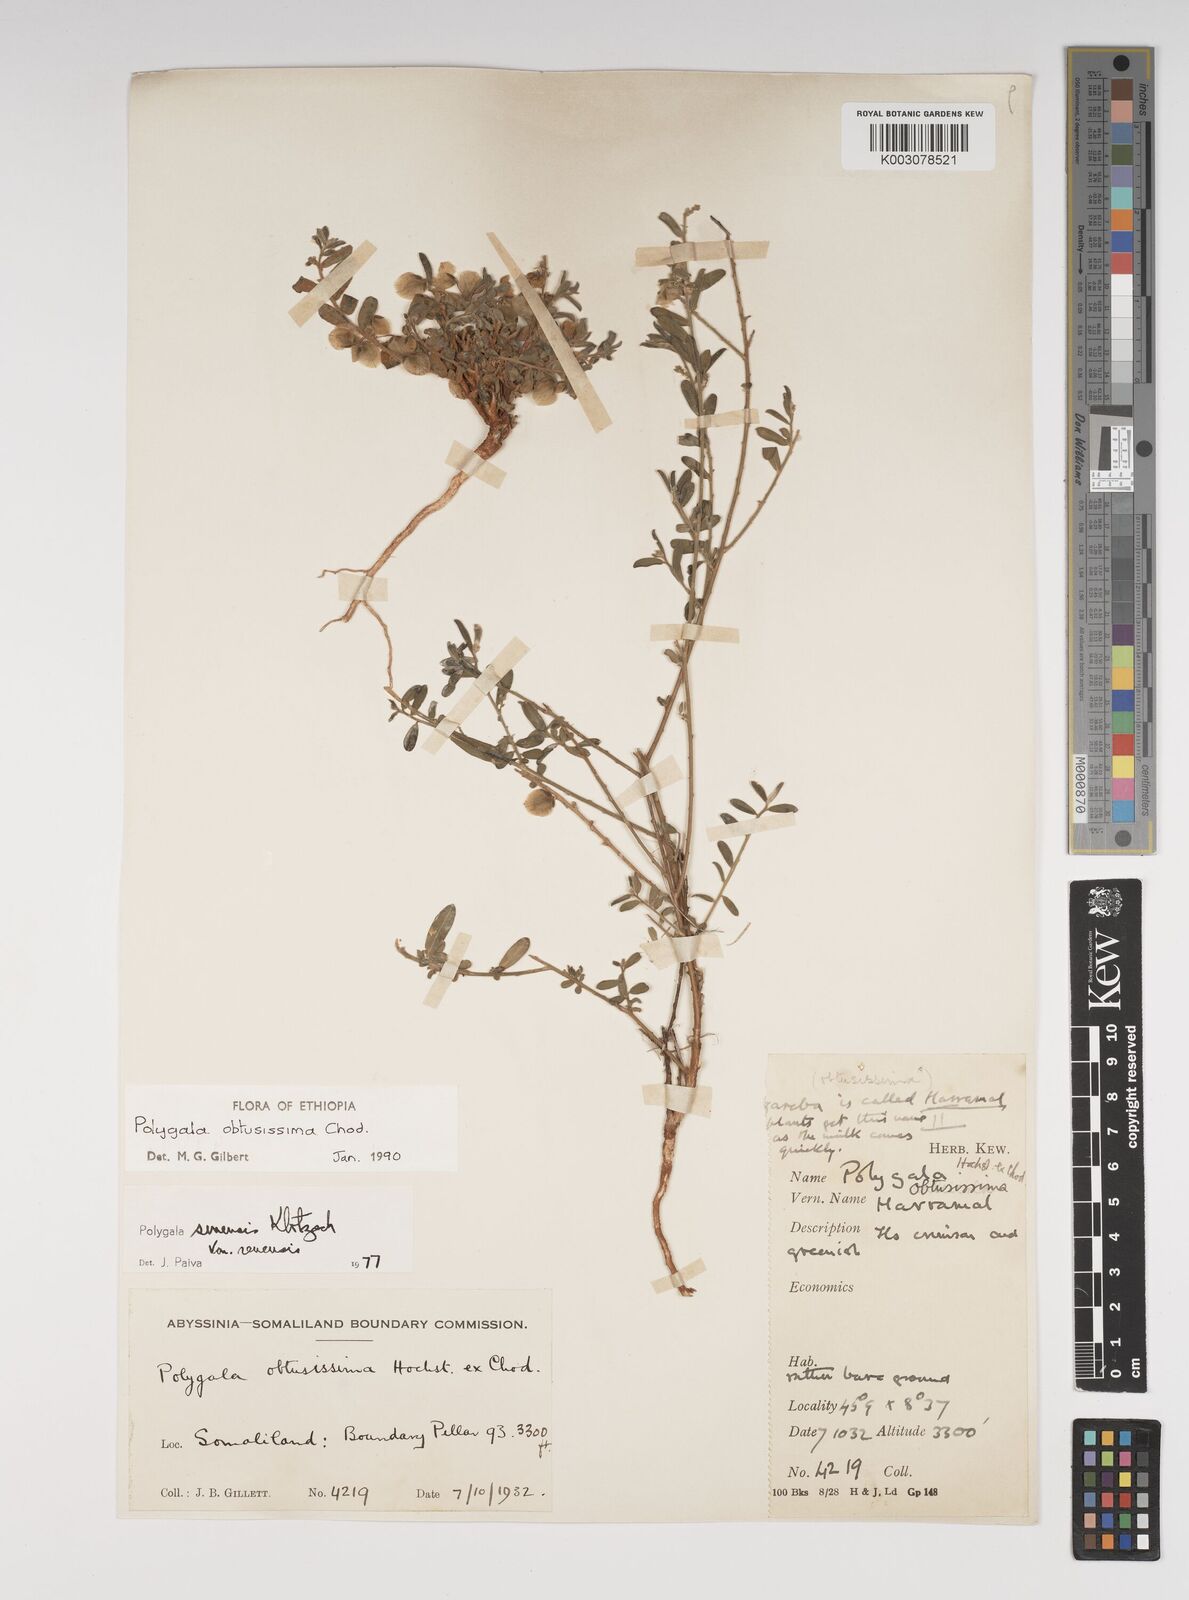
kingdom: Plantae
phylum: Tracheophyta
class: Magnoliopsida
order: Fabales
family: Polygalaceae
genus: Polygala
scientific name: Polygala senensis
